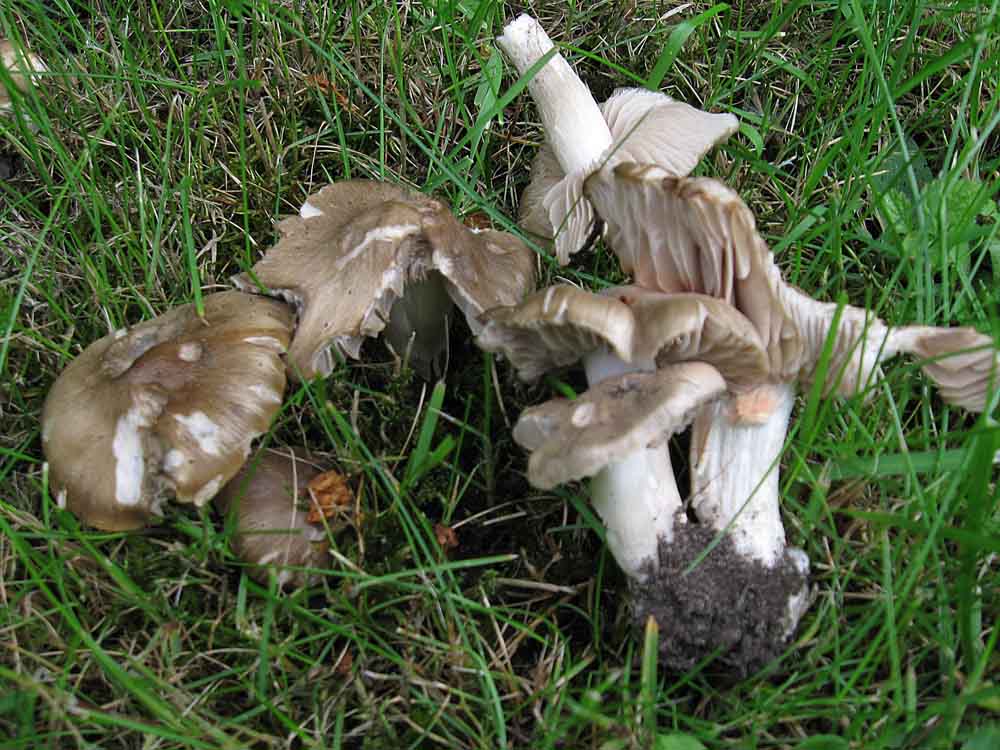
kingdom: Fungi
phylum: Basidiomycota
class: Agaricomycetes
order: Agaricales
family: Entolomataceae
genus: Entoloma
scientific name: Entoloma clypeatum
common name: flammet rødblad
